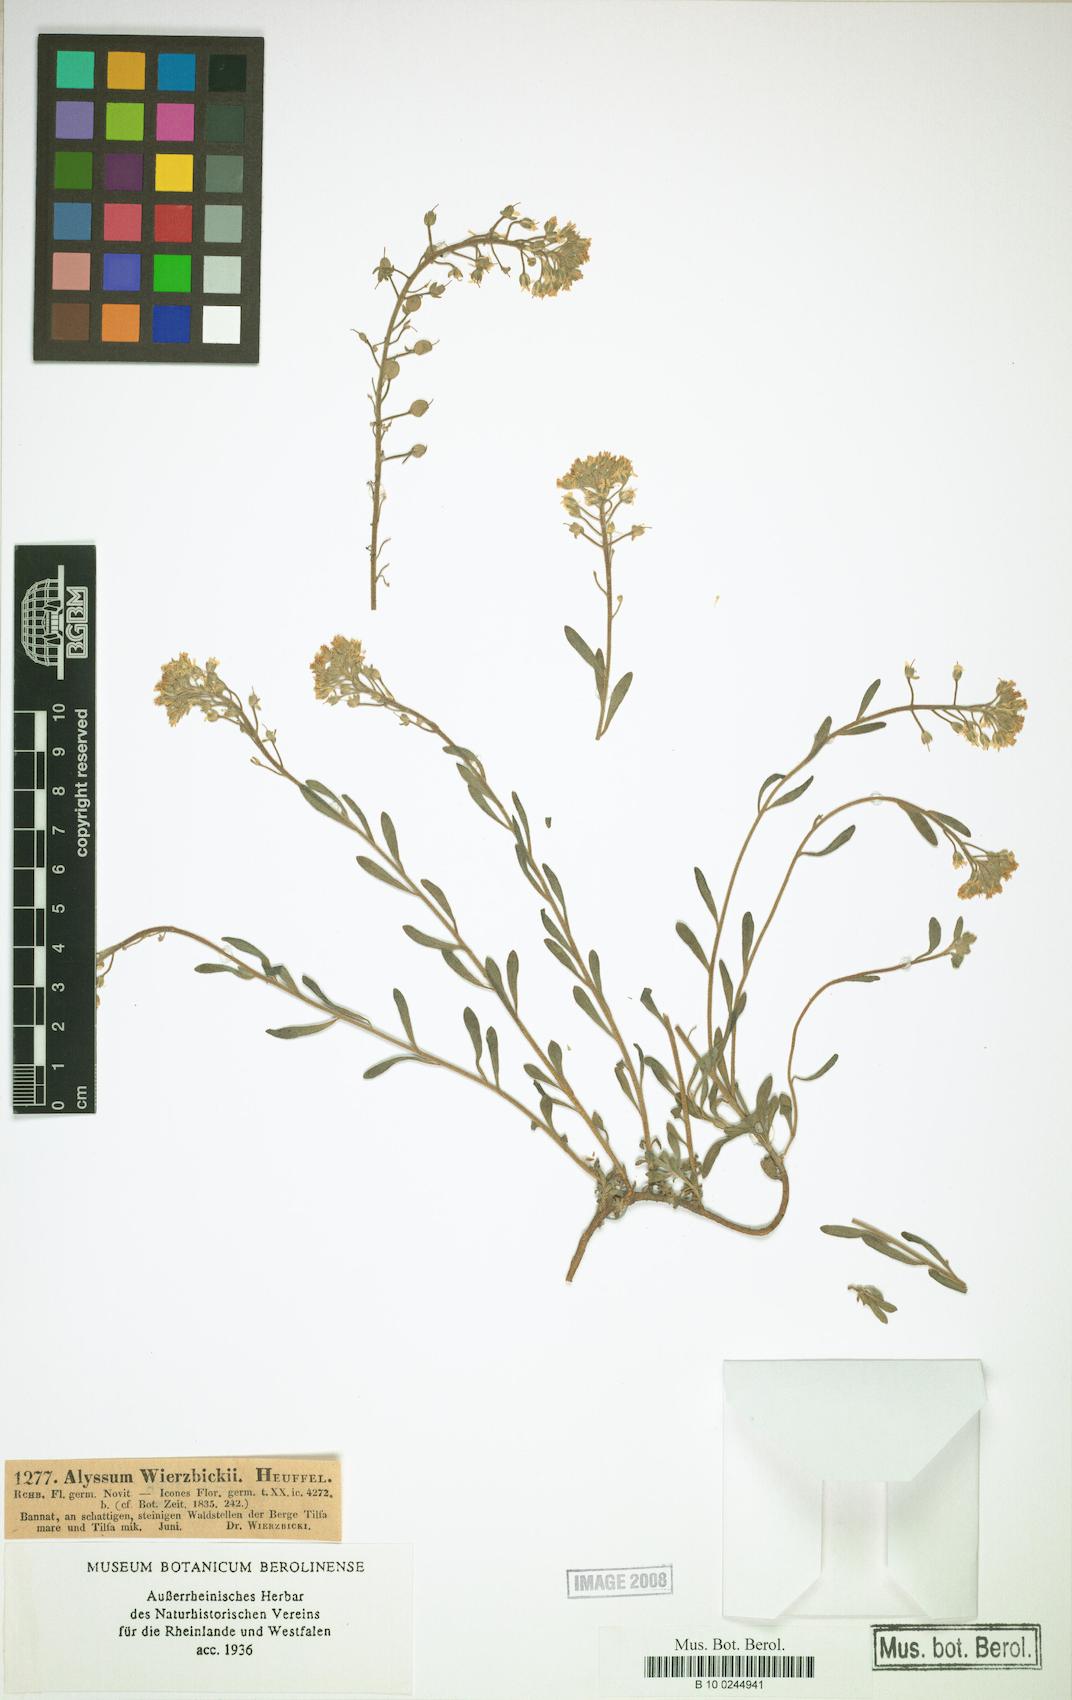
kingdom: Plantae
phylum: Tracheophyta
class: Magnoliopsida
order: Brassicales
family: Brassicaceae
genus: Alyssum
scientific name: Alyssum wierzbickii
